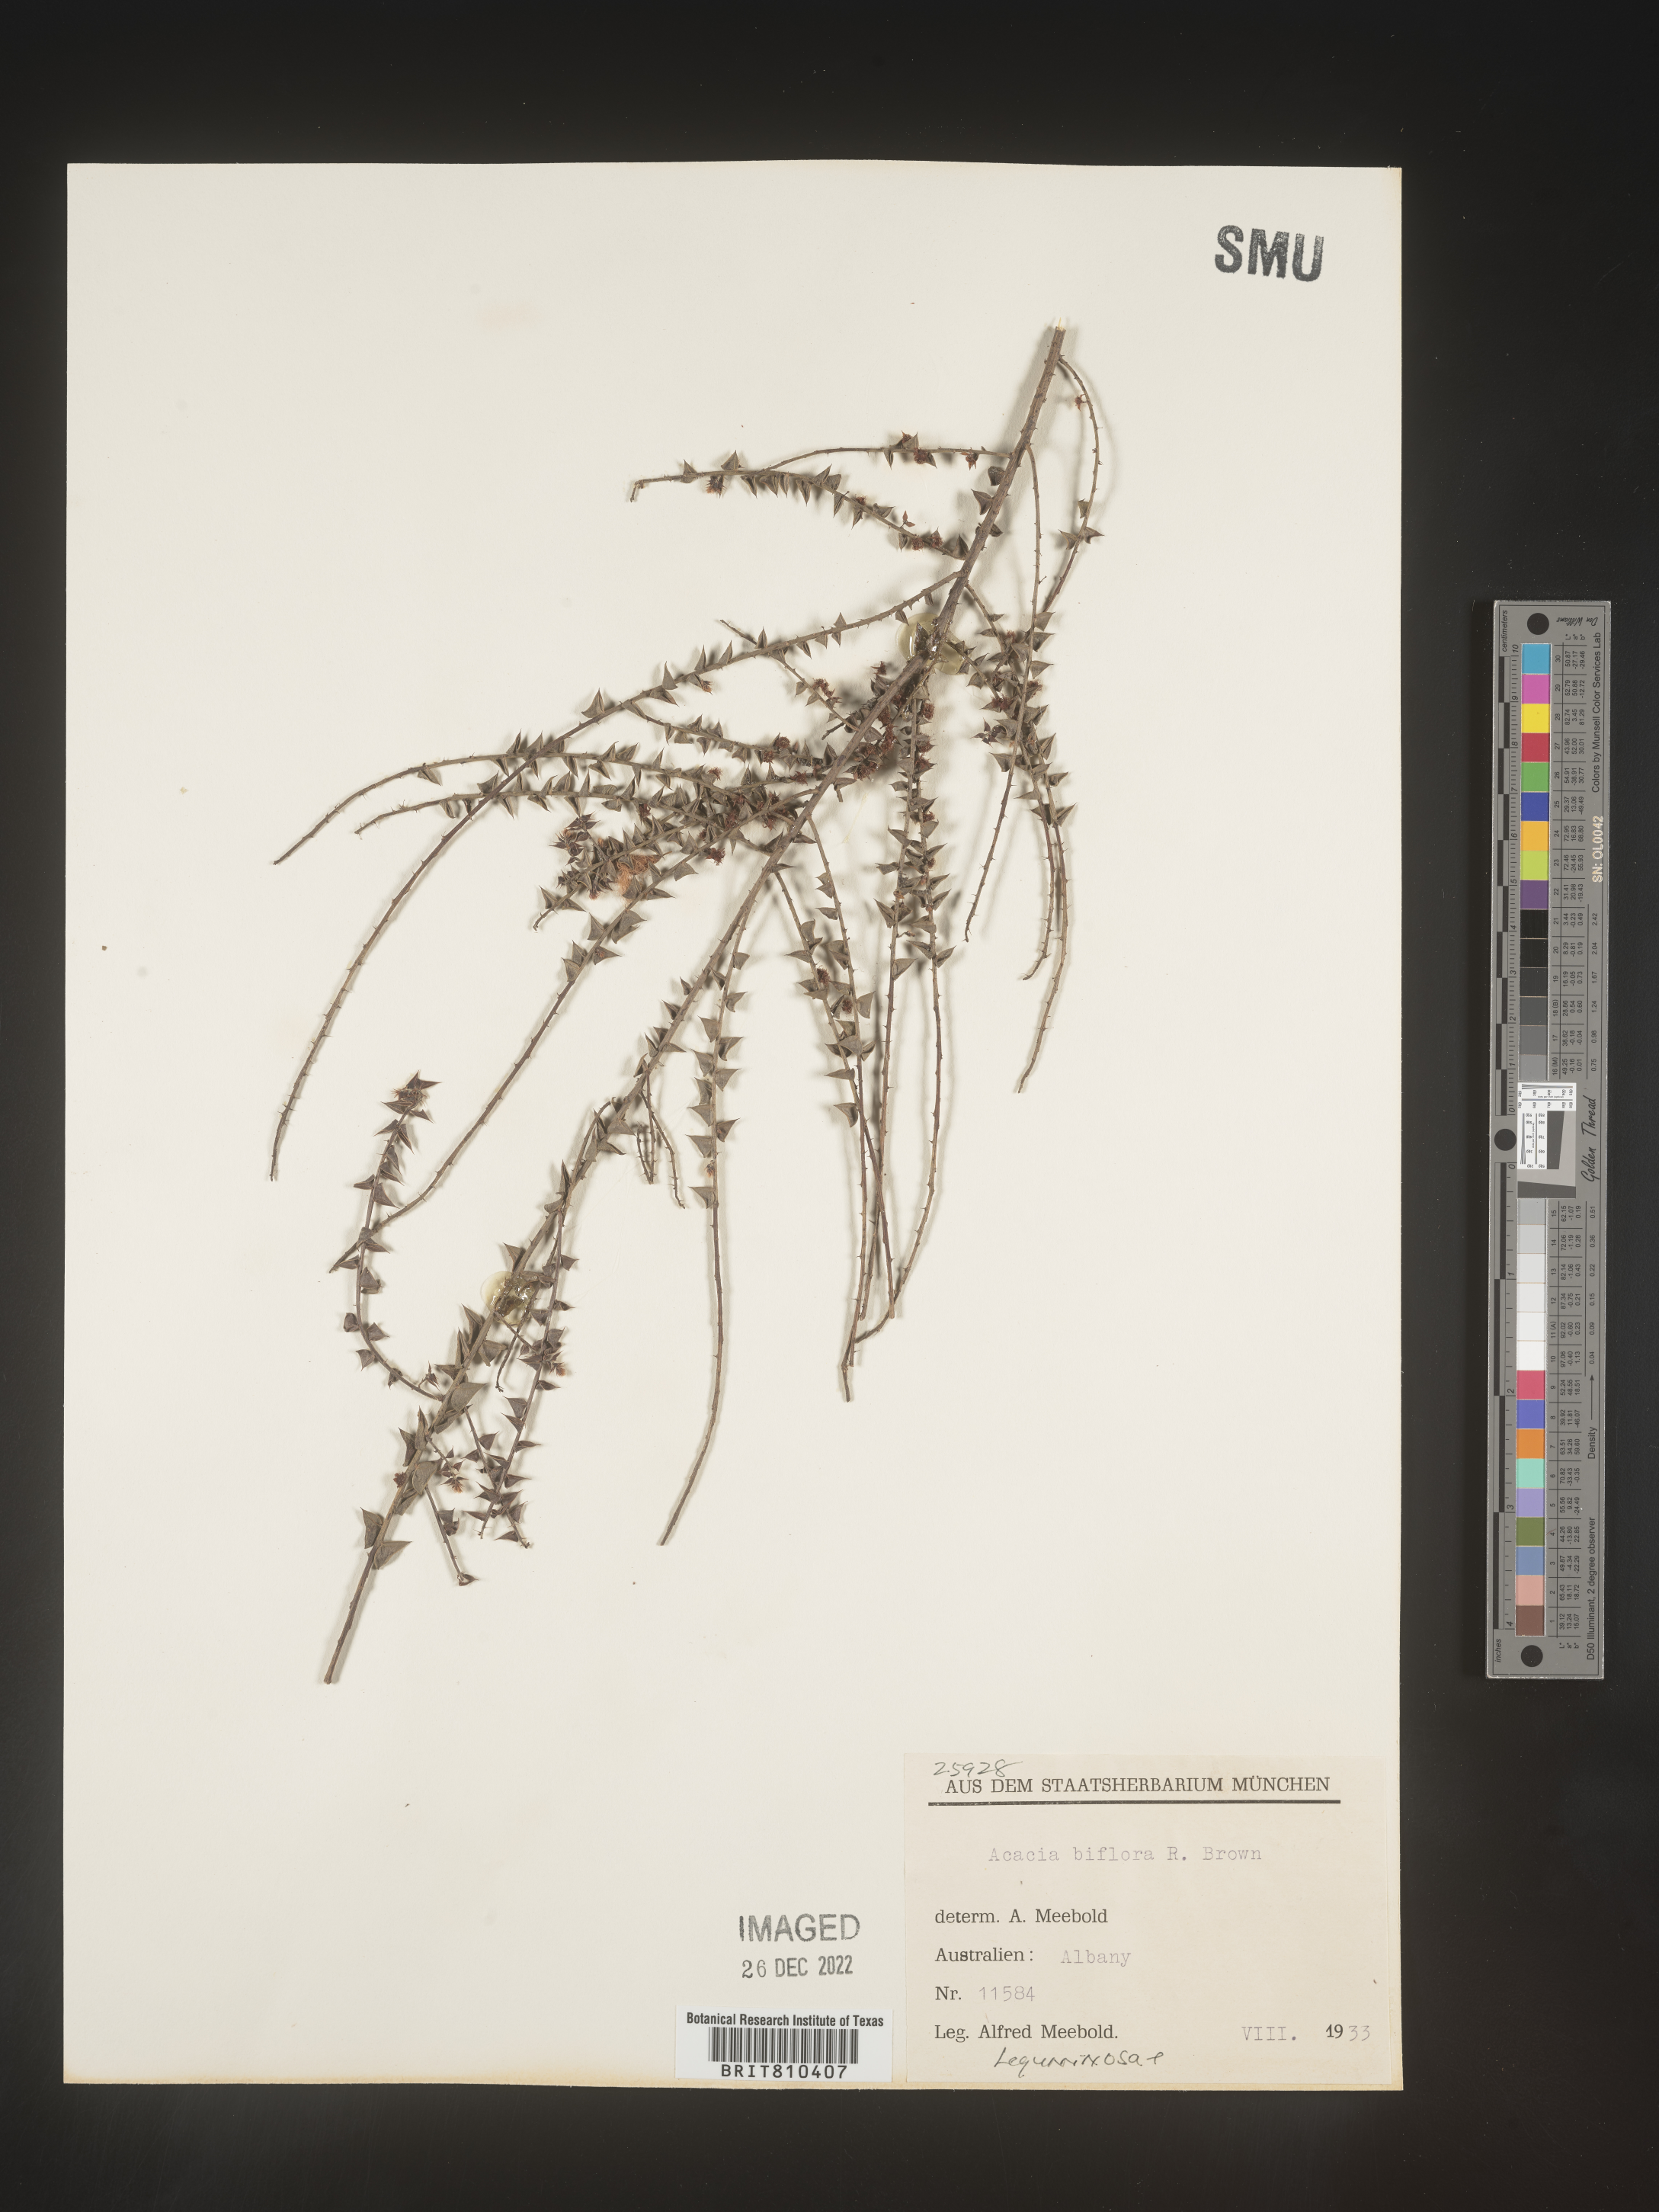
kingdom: Plantae
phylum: Tracheophyta
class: Magnoliopsida
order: Fabales
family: Fabaceae
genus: Acacia
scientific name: Acacia
